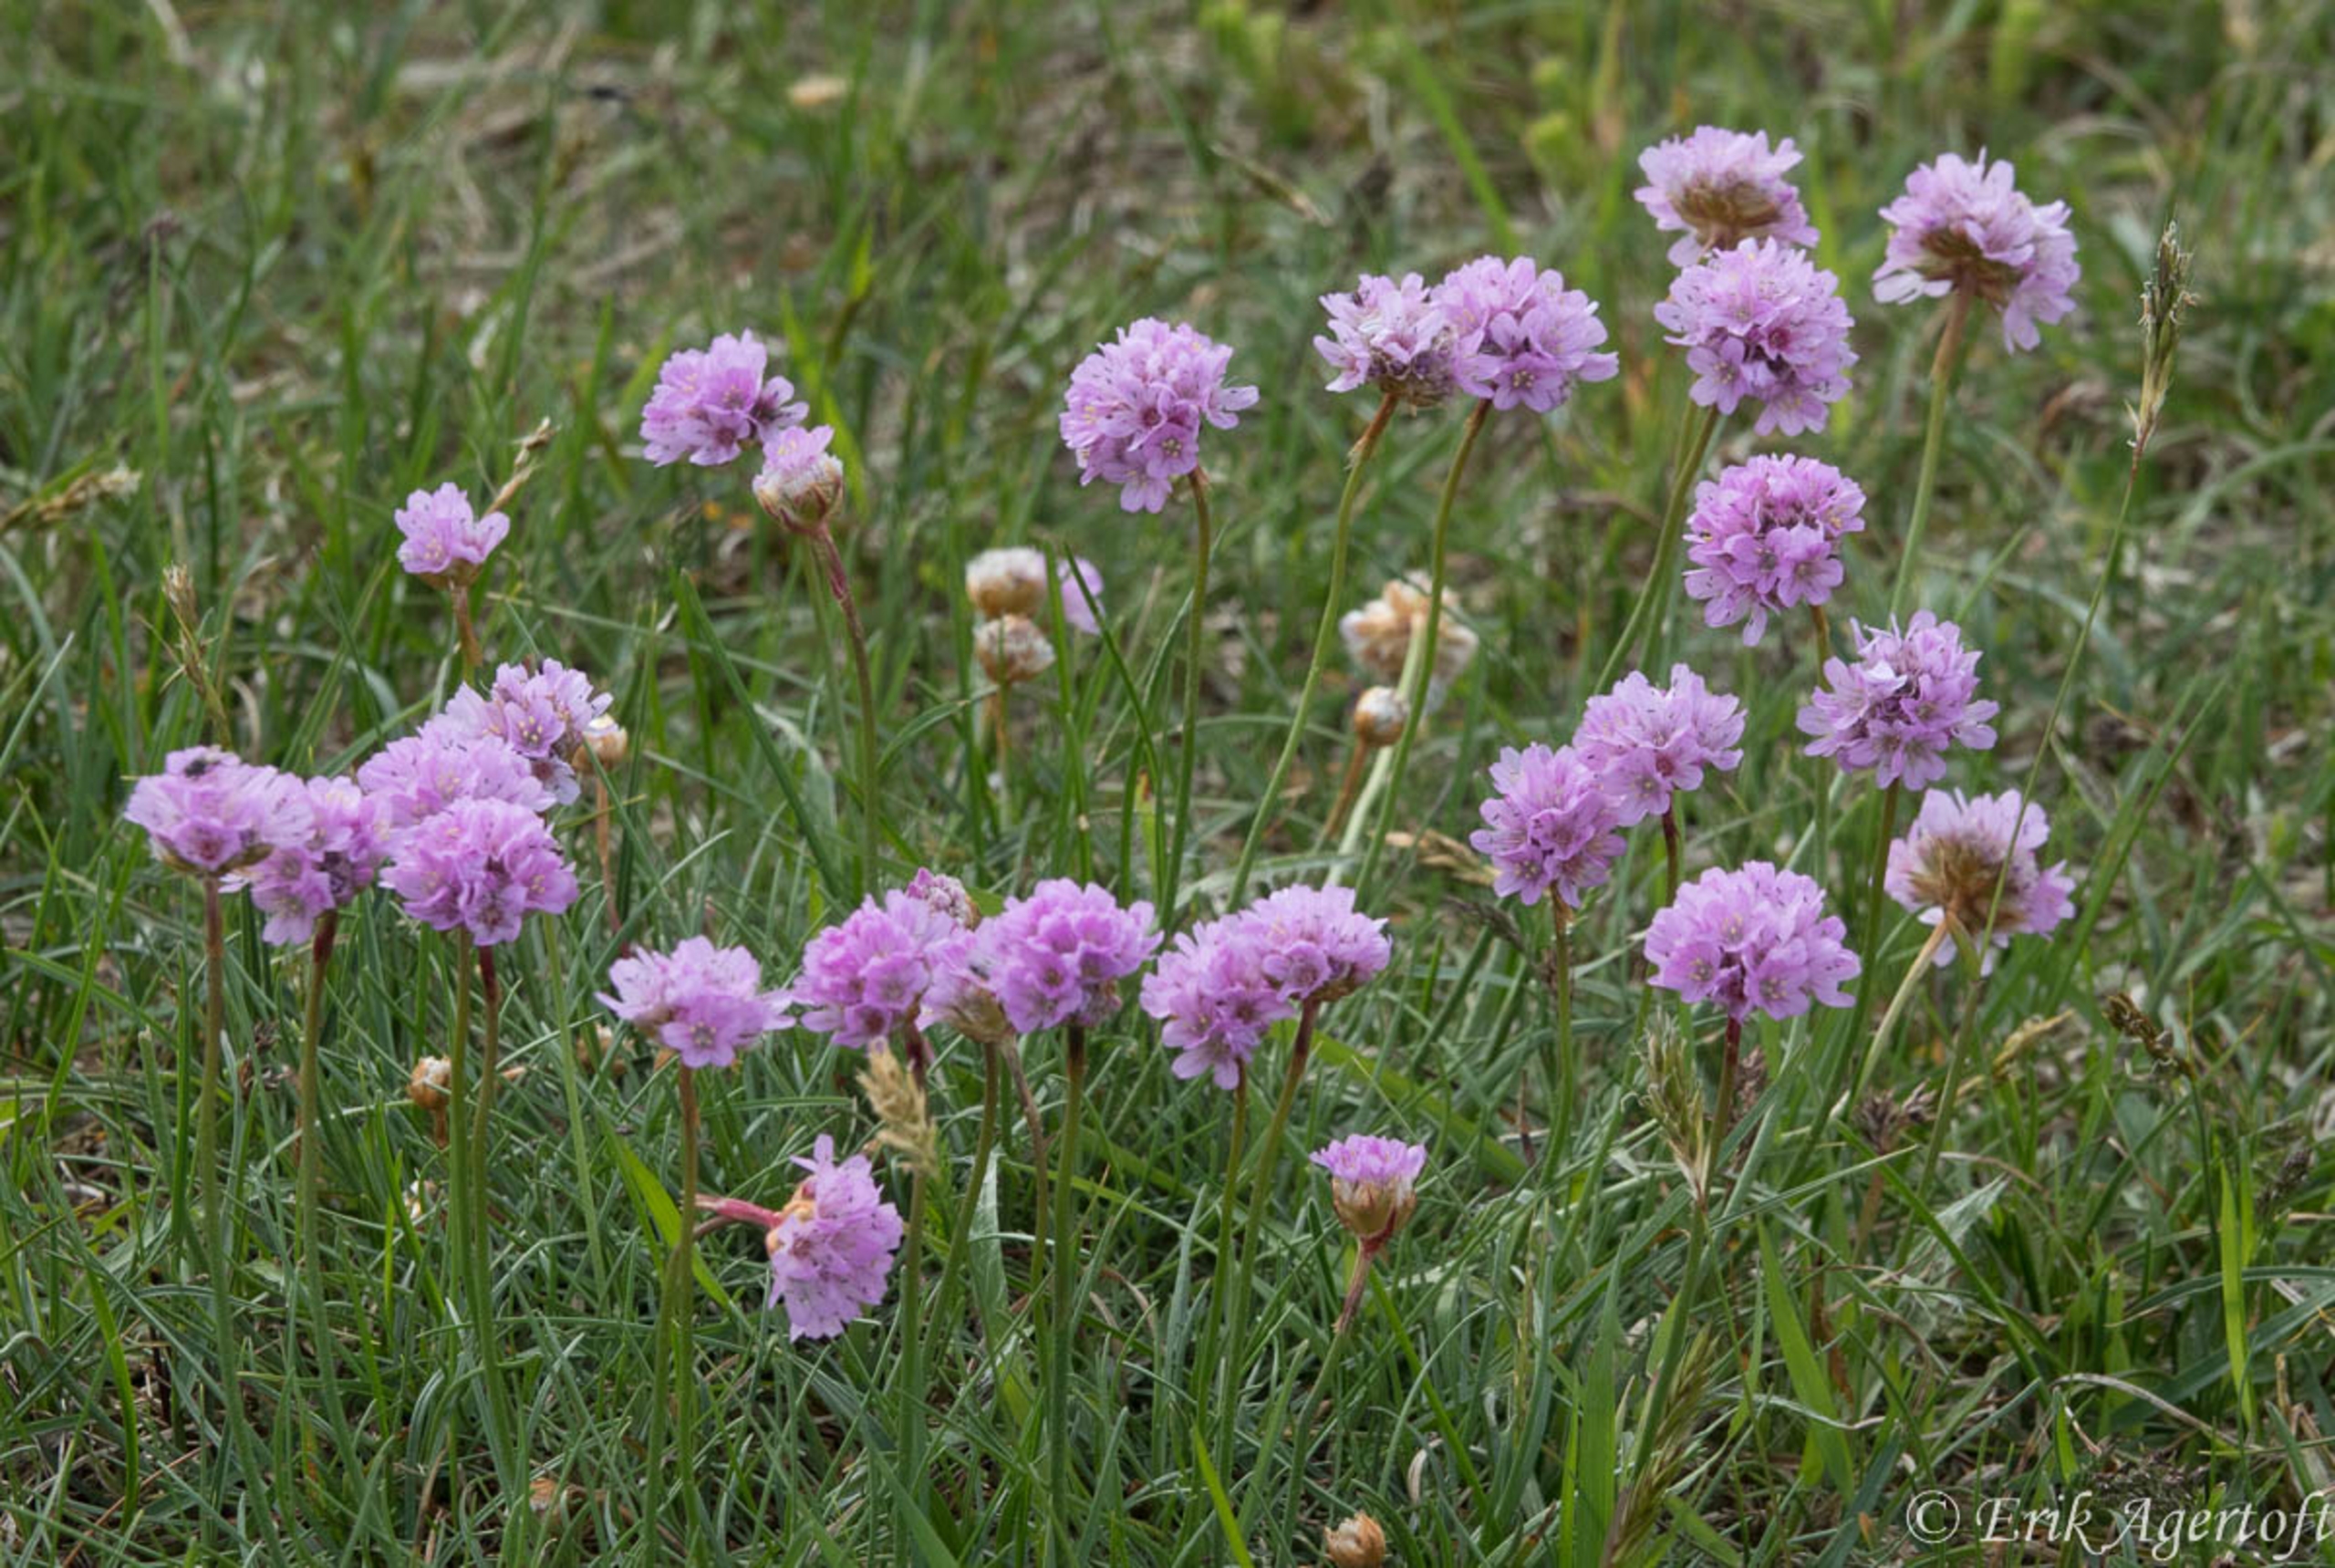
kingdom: Plantae
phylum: Tracheophyta
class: Magnoliopsida
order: Caryophyllales
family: Plumbaginaceae
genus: Armeria
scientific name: Armeria maritima
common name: Engelskgræs
